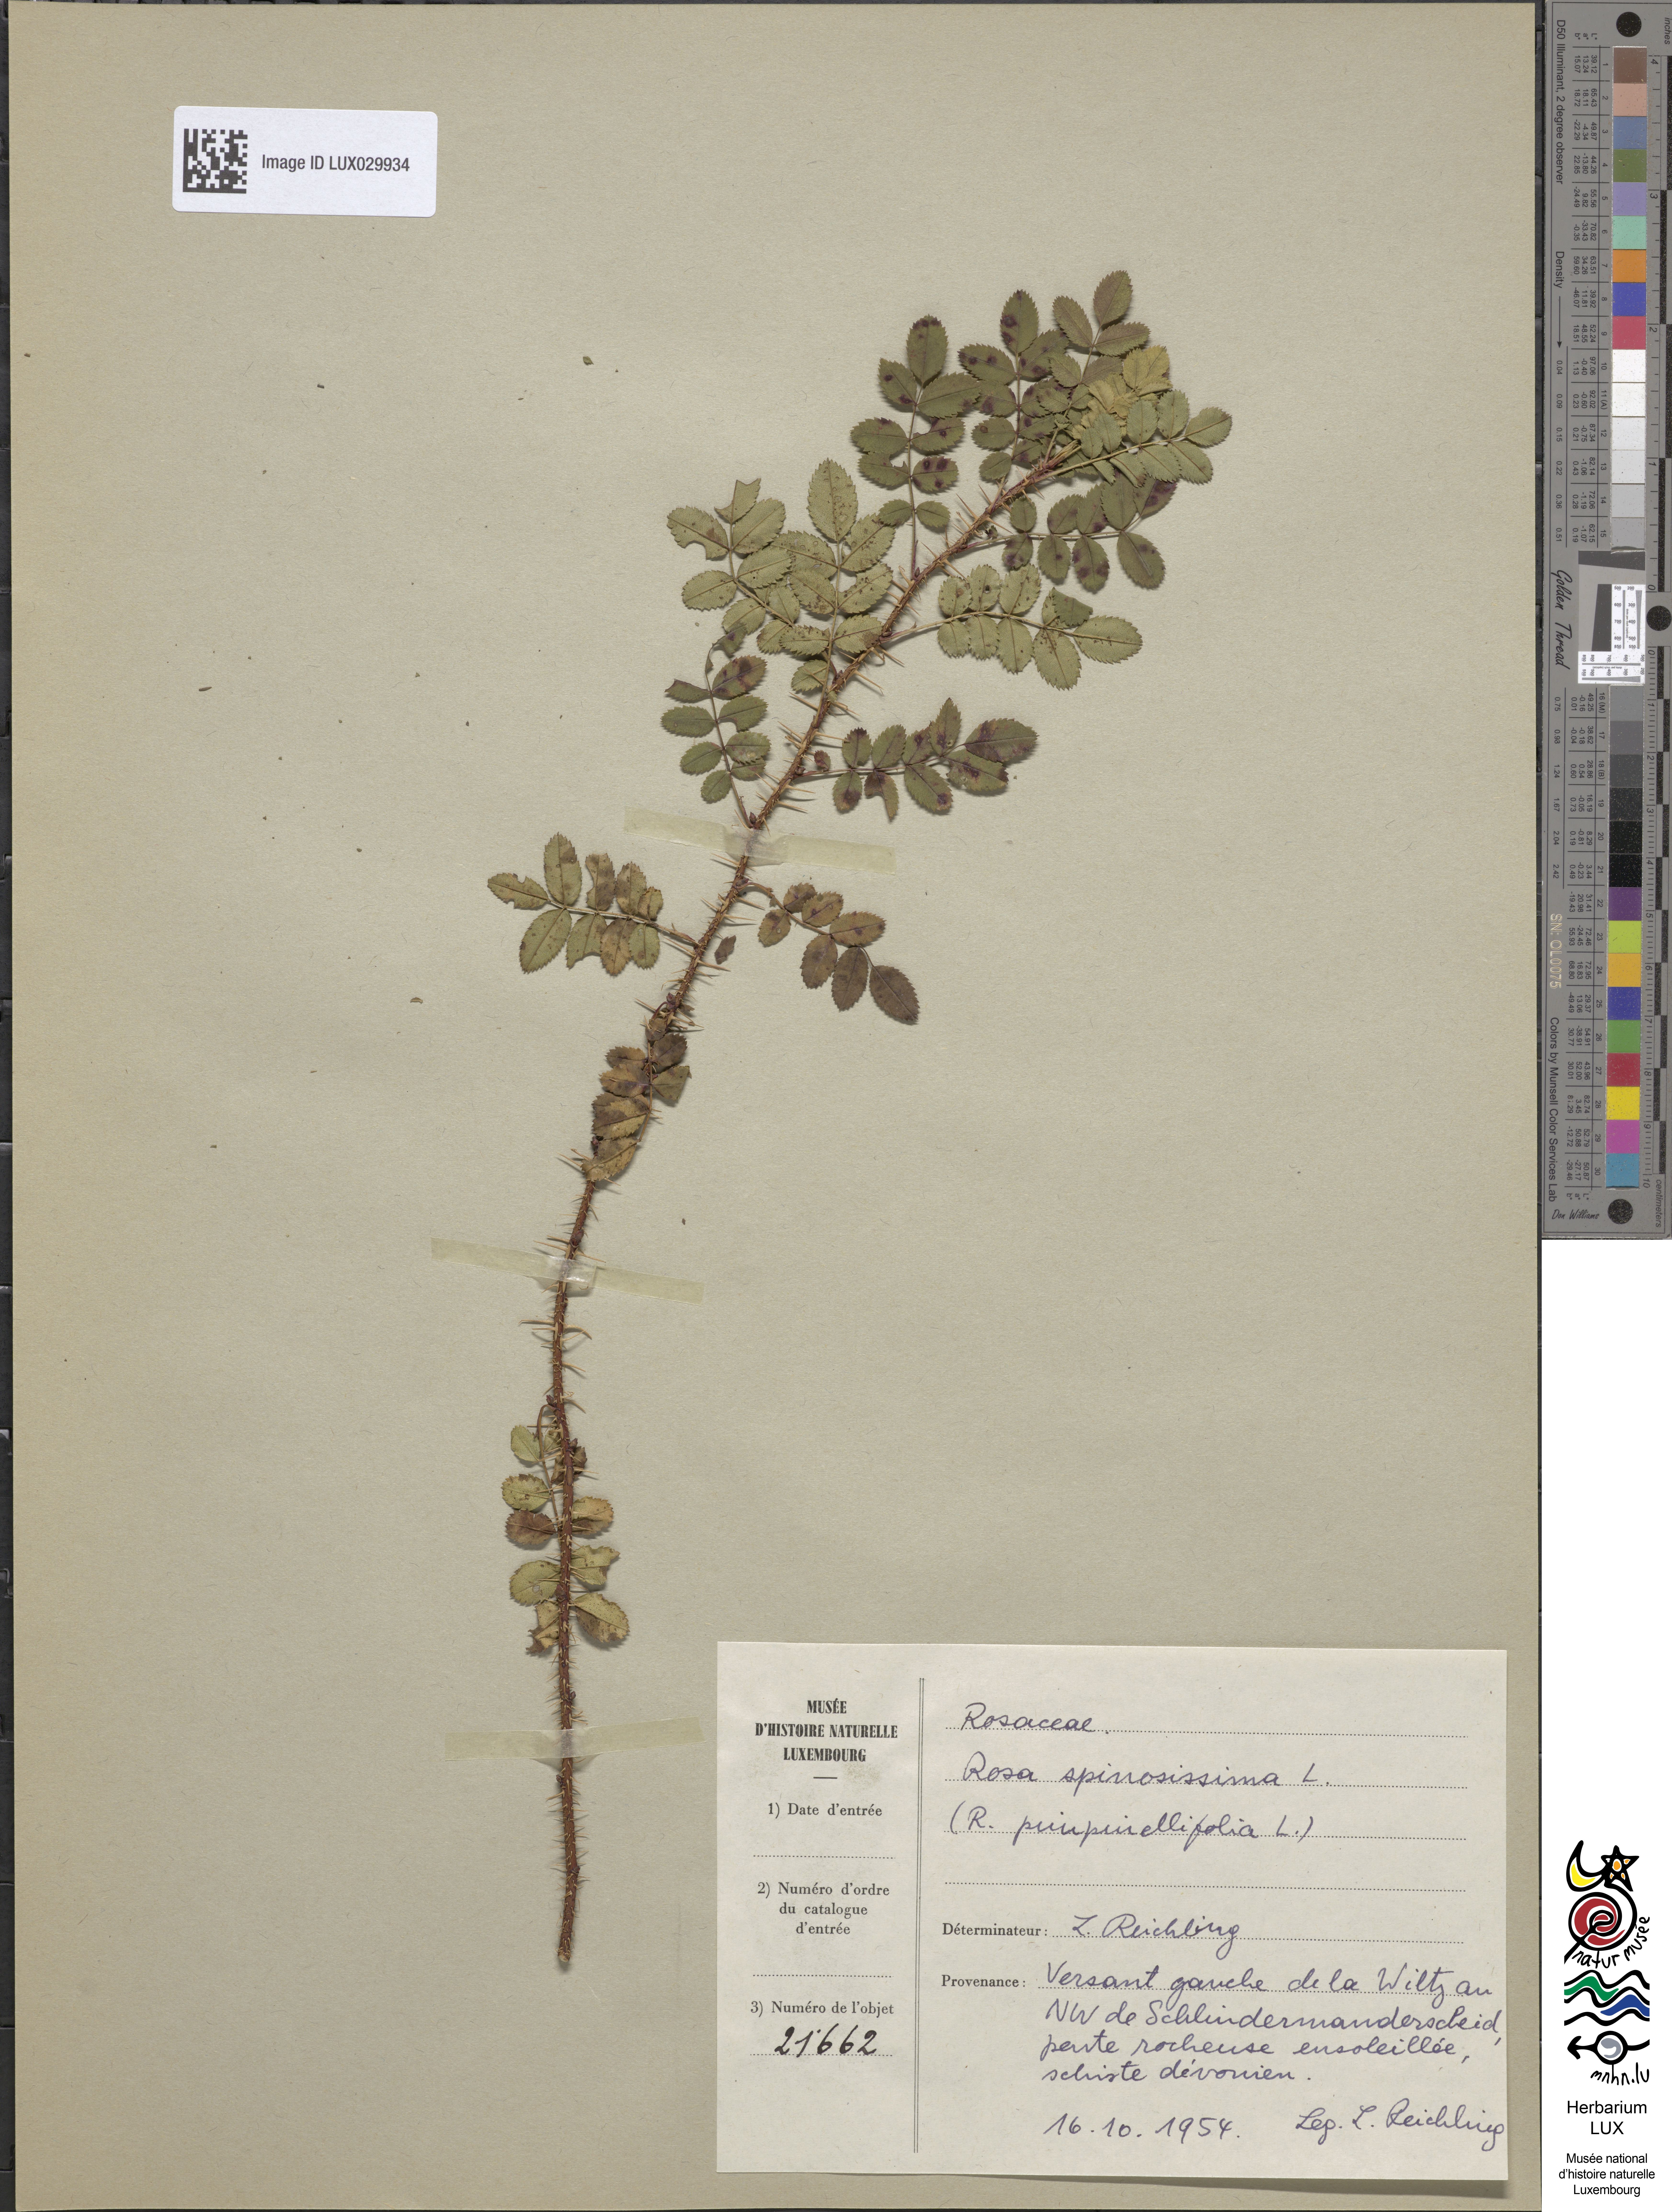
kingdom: Plantae
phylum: Tracheophyta
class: Magnoliopsida
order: Rosales
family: Rosaceae
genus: Rosa
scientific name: Rosa
